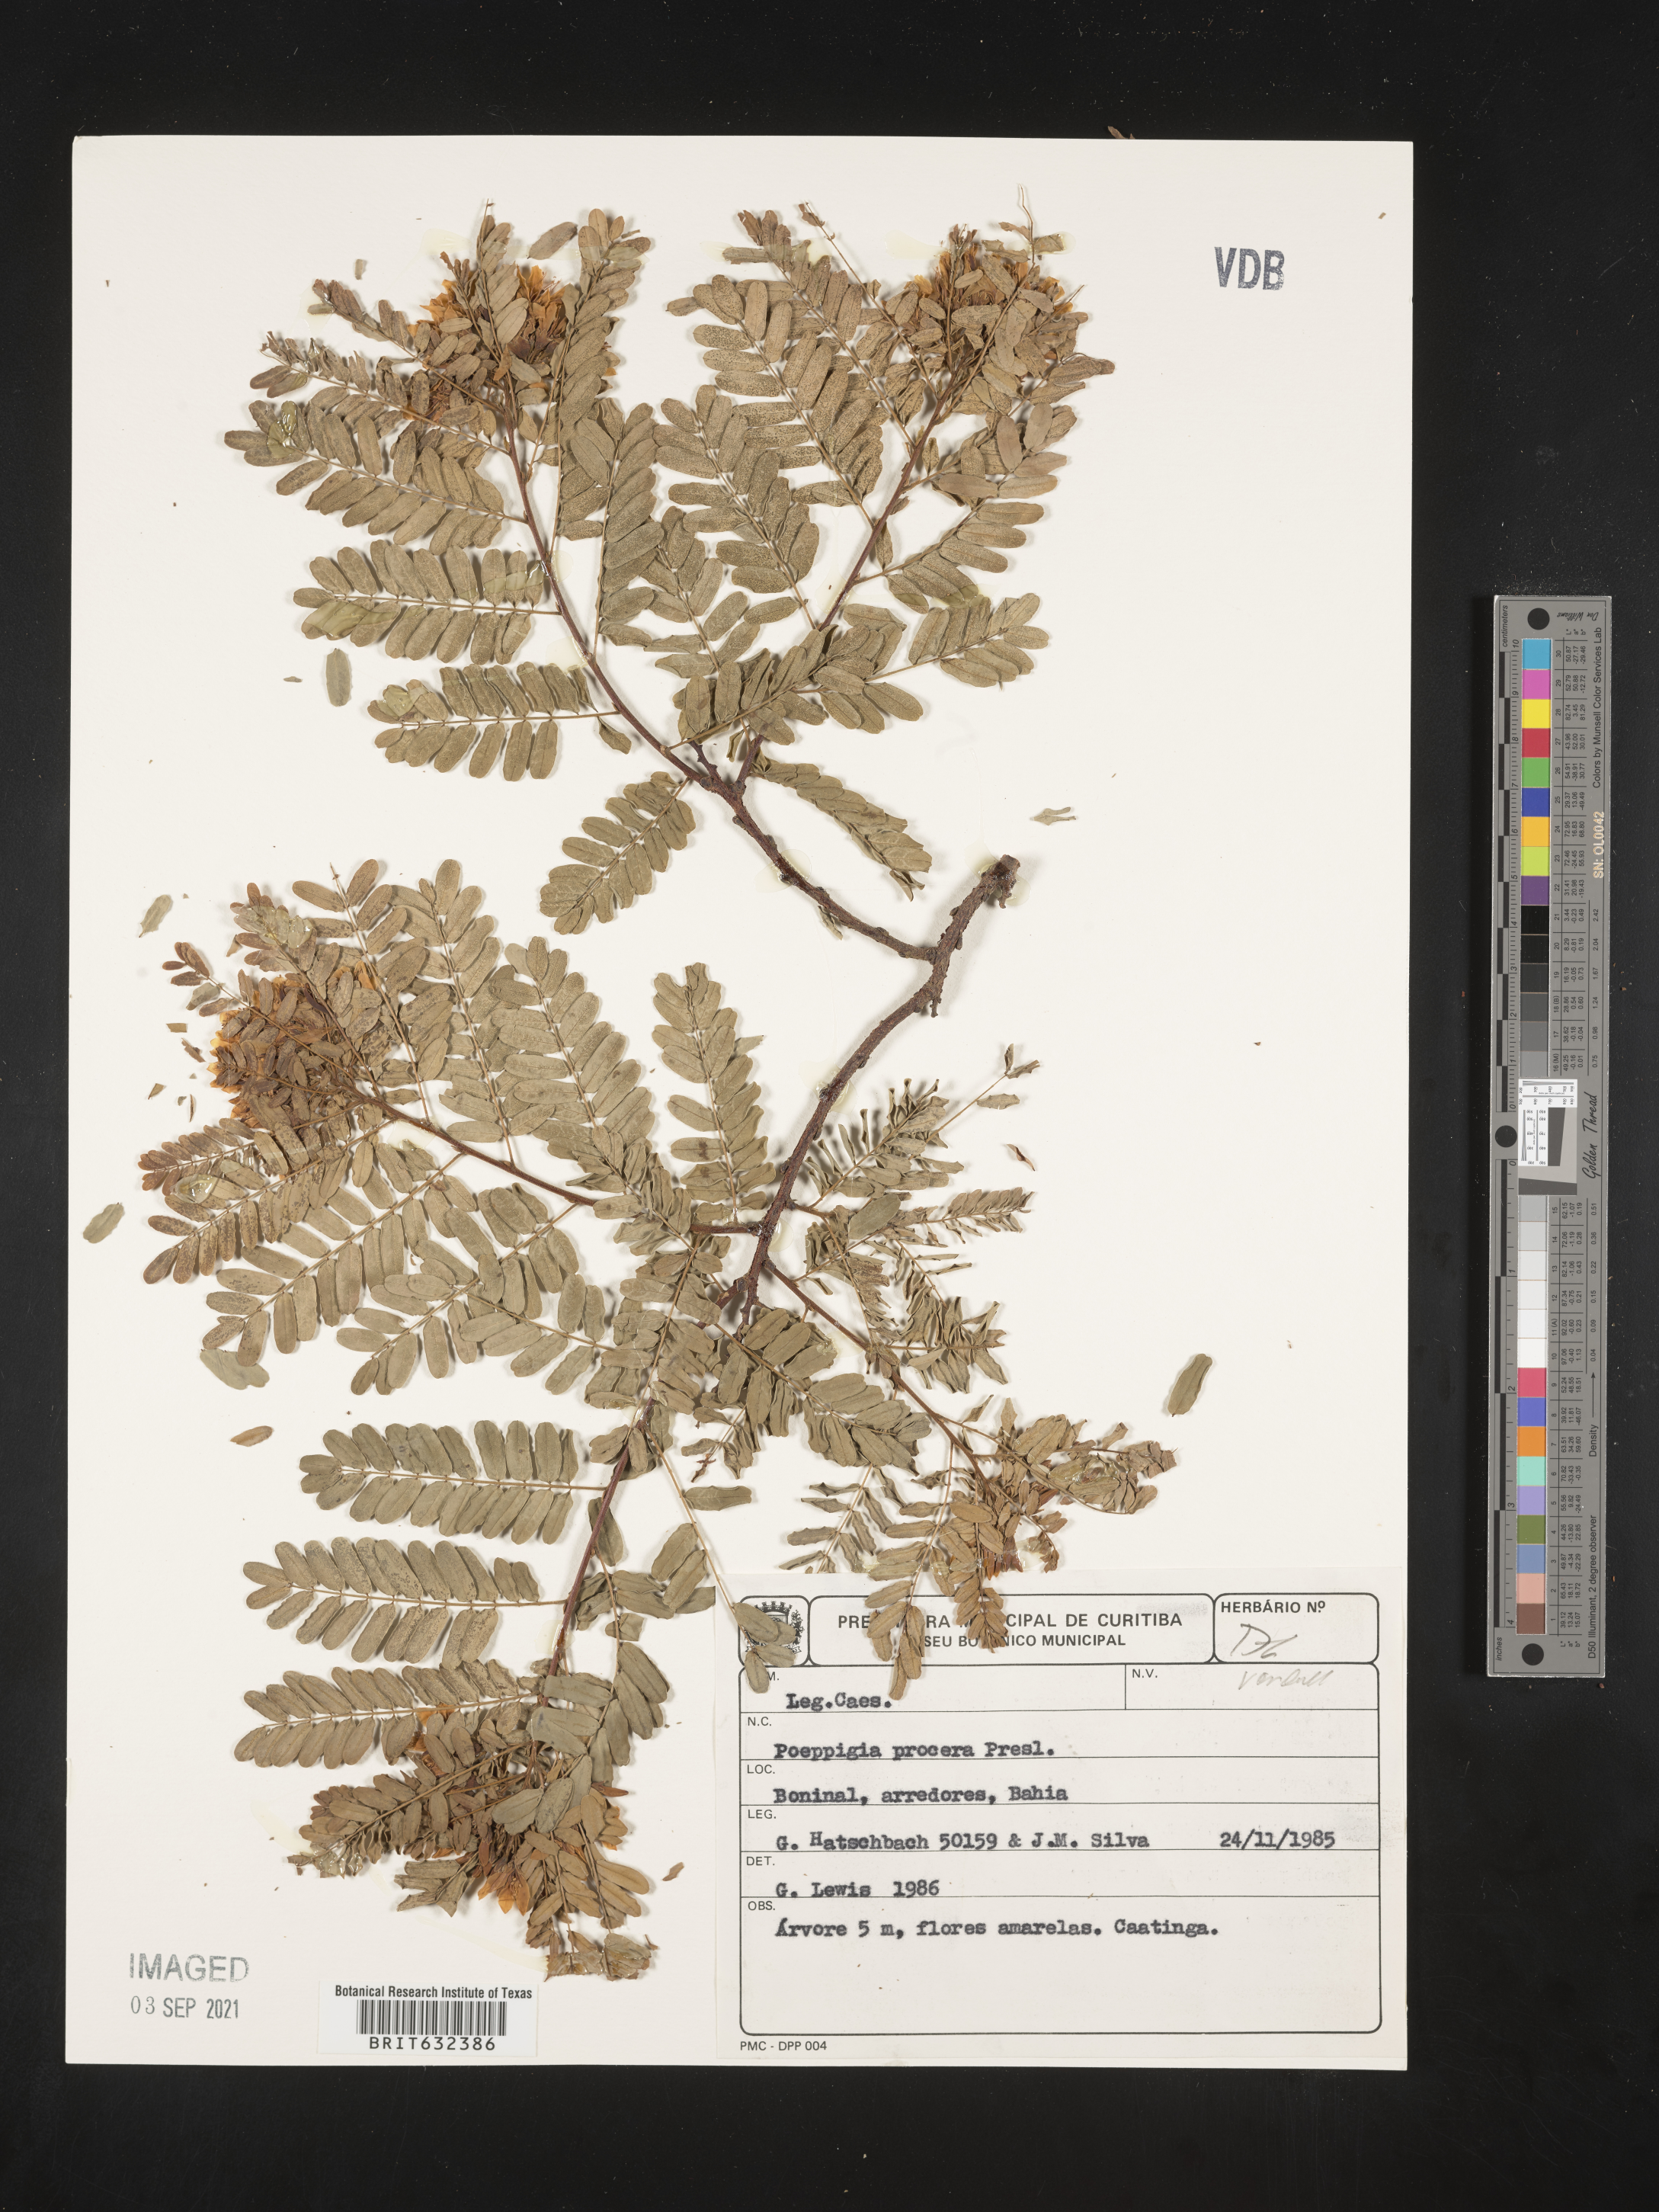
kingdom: Plantae
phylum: Tracheophyta
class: Magnoliopsida
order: Fabales
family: Fabaceae
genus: Poeppigia
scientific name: Poeppigia procera
